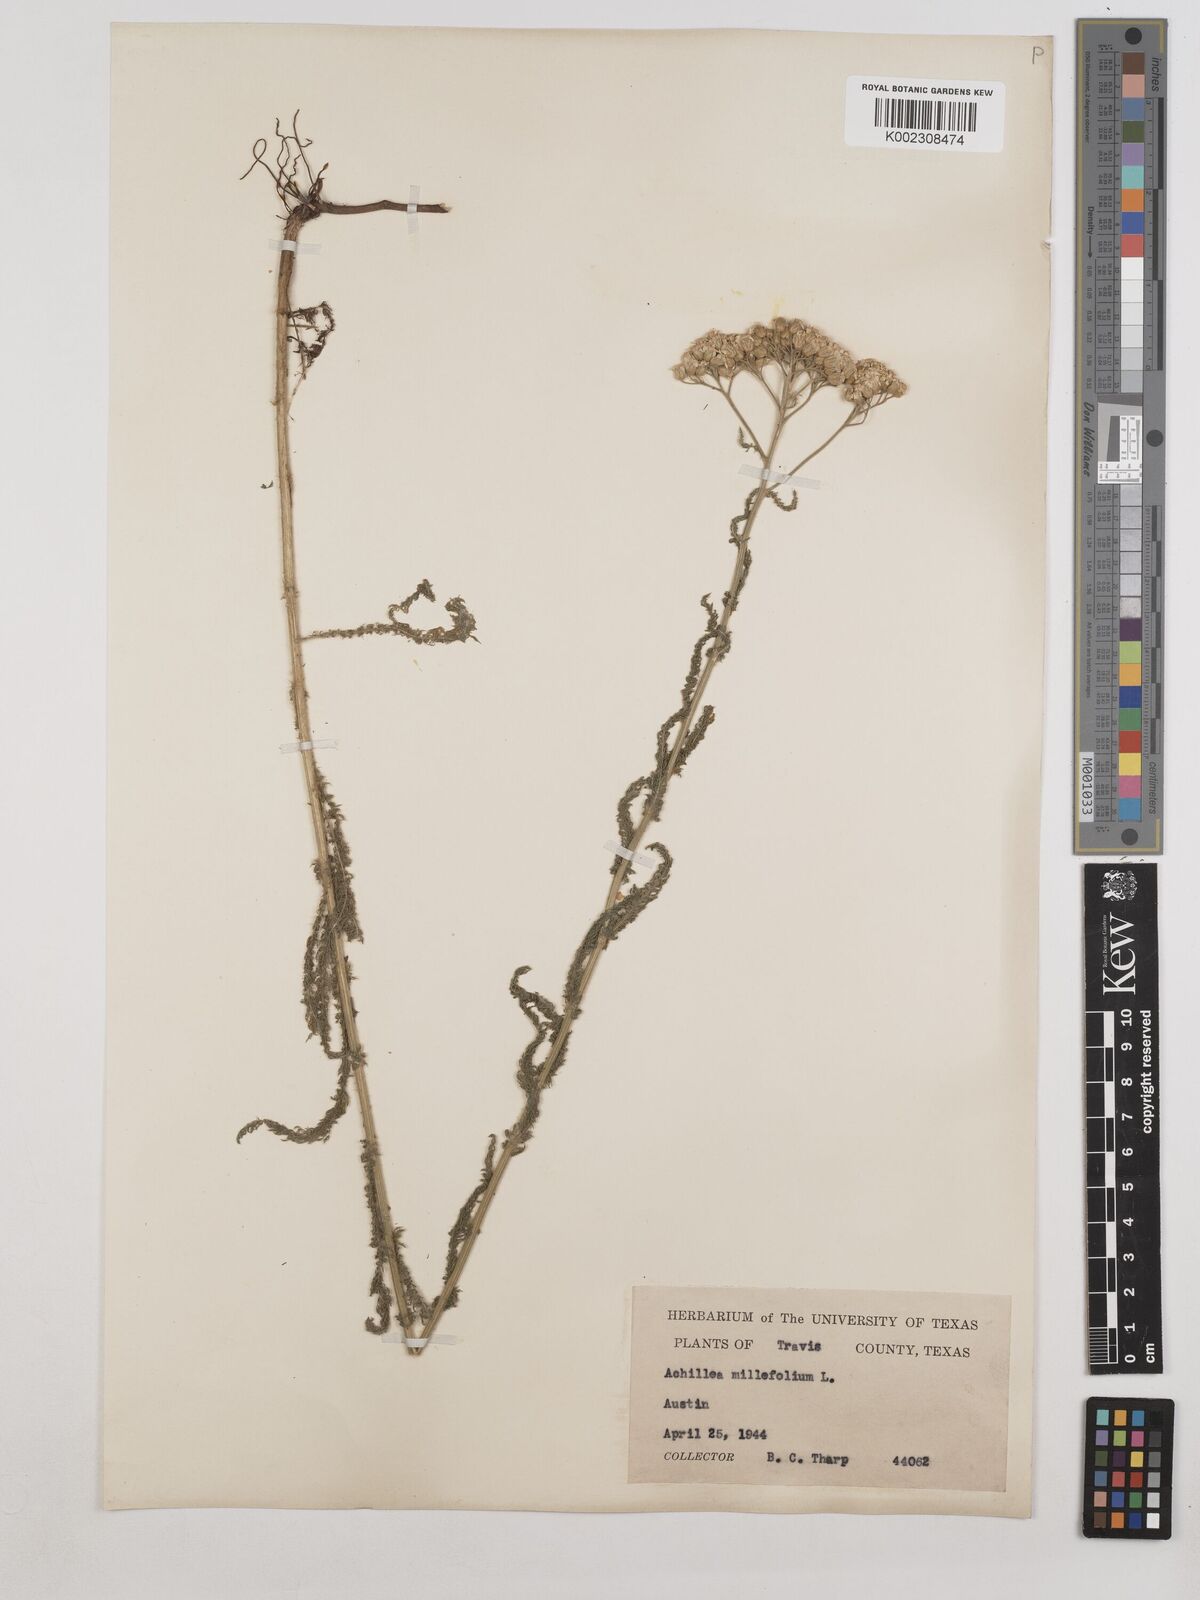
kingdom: Plantae
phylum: Tracheophyta
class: Magnoliopsida
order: Asterales
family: Asteraceae
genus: Achillea
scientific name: Achillea millefolium
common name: Yarrow
